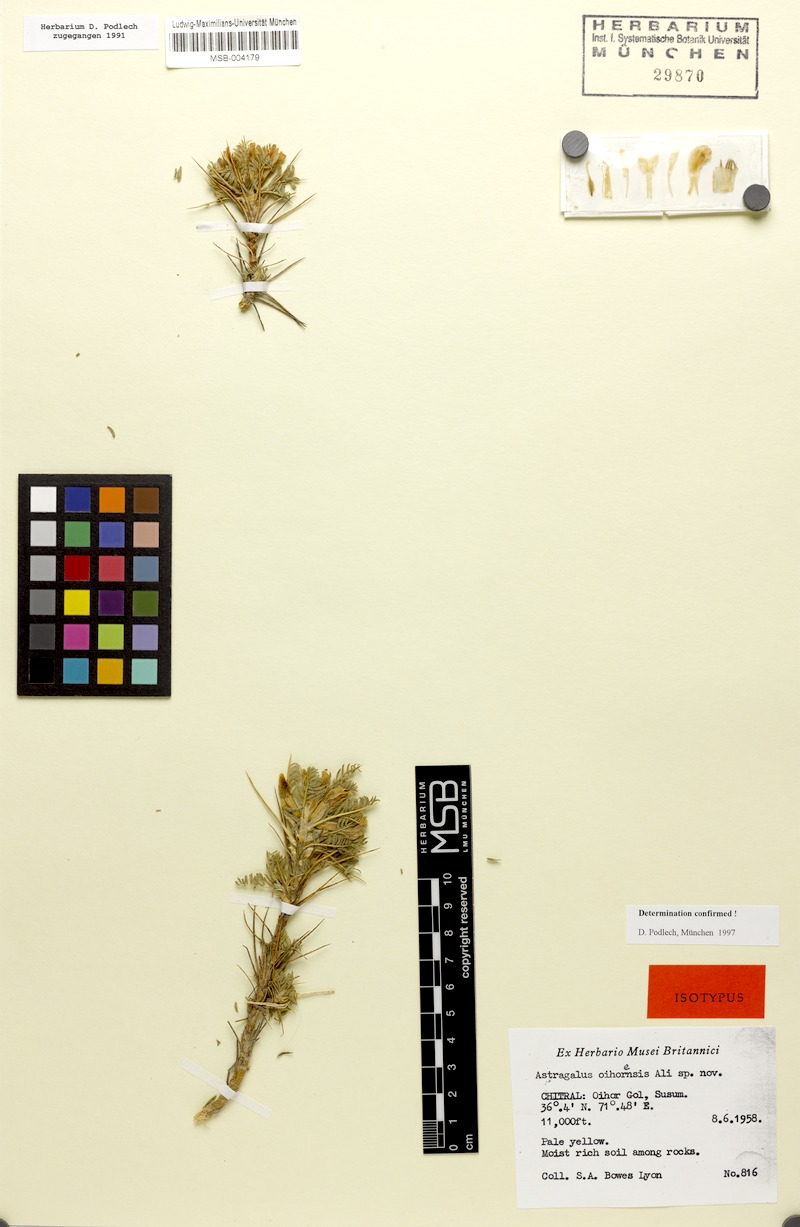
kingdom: Plantae
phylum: Tracheophyta
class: Magnoliopsida
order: Fabales
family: Fabaceae
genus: Astragalus
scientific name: Astragalus oihorensis
